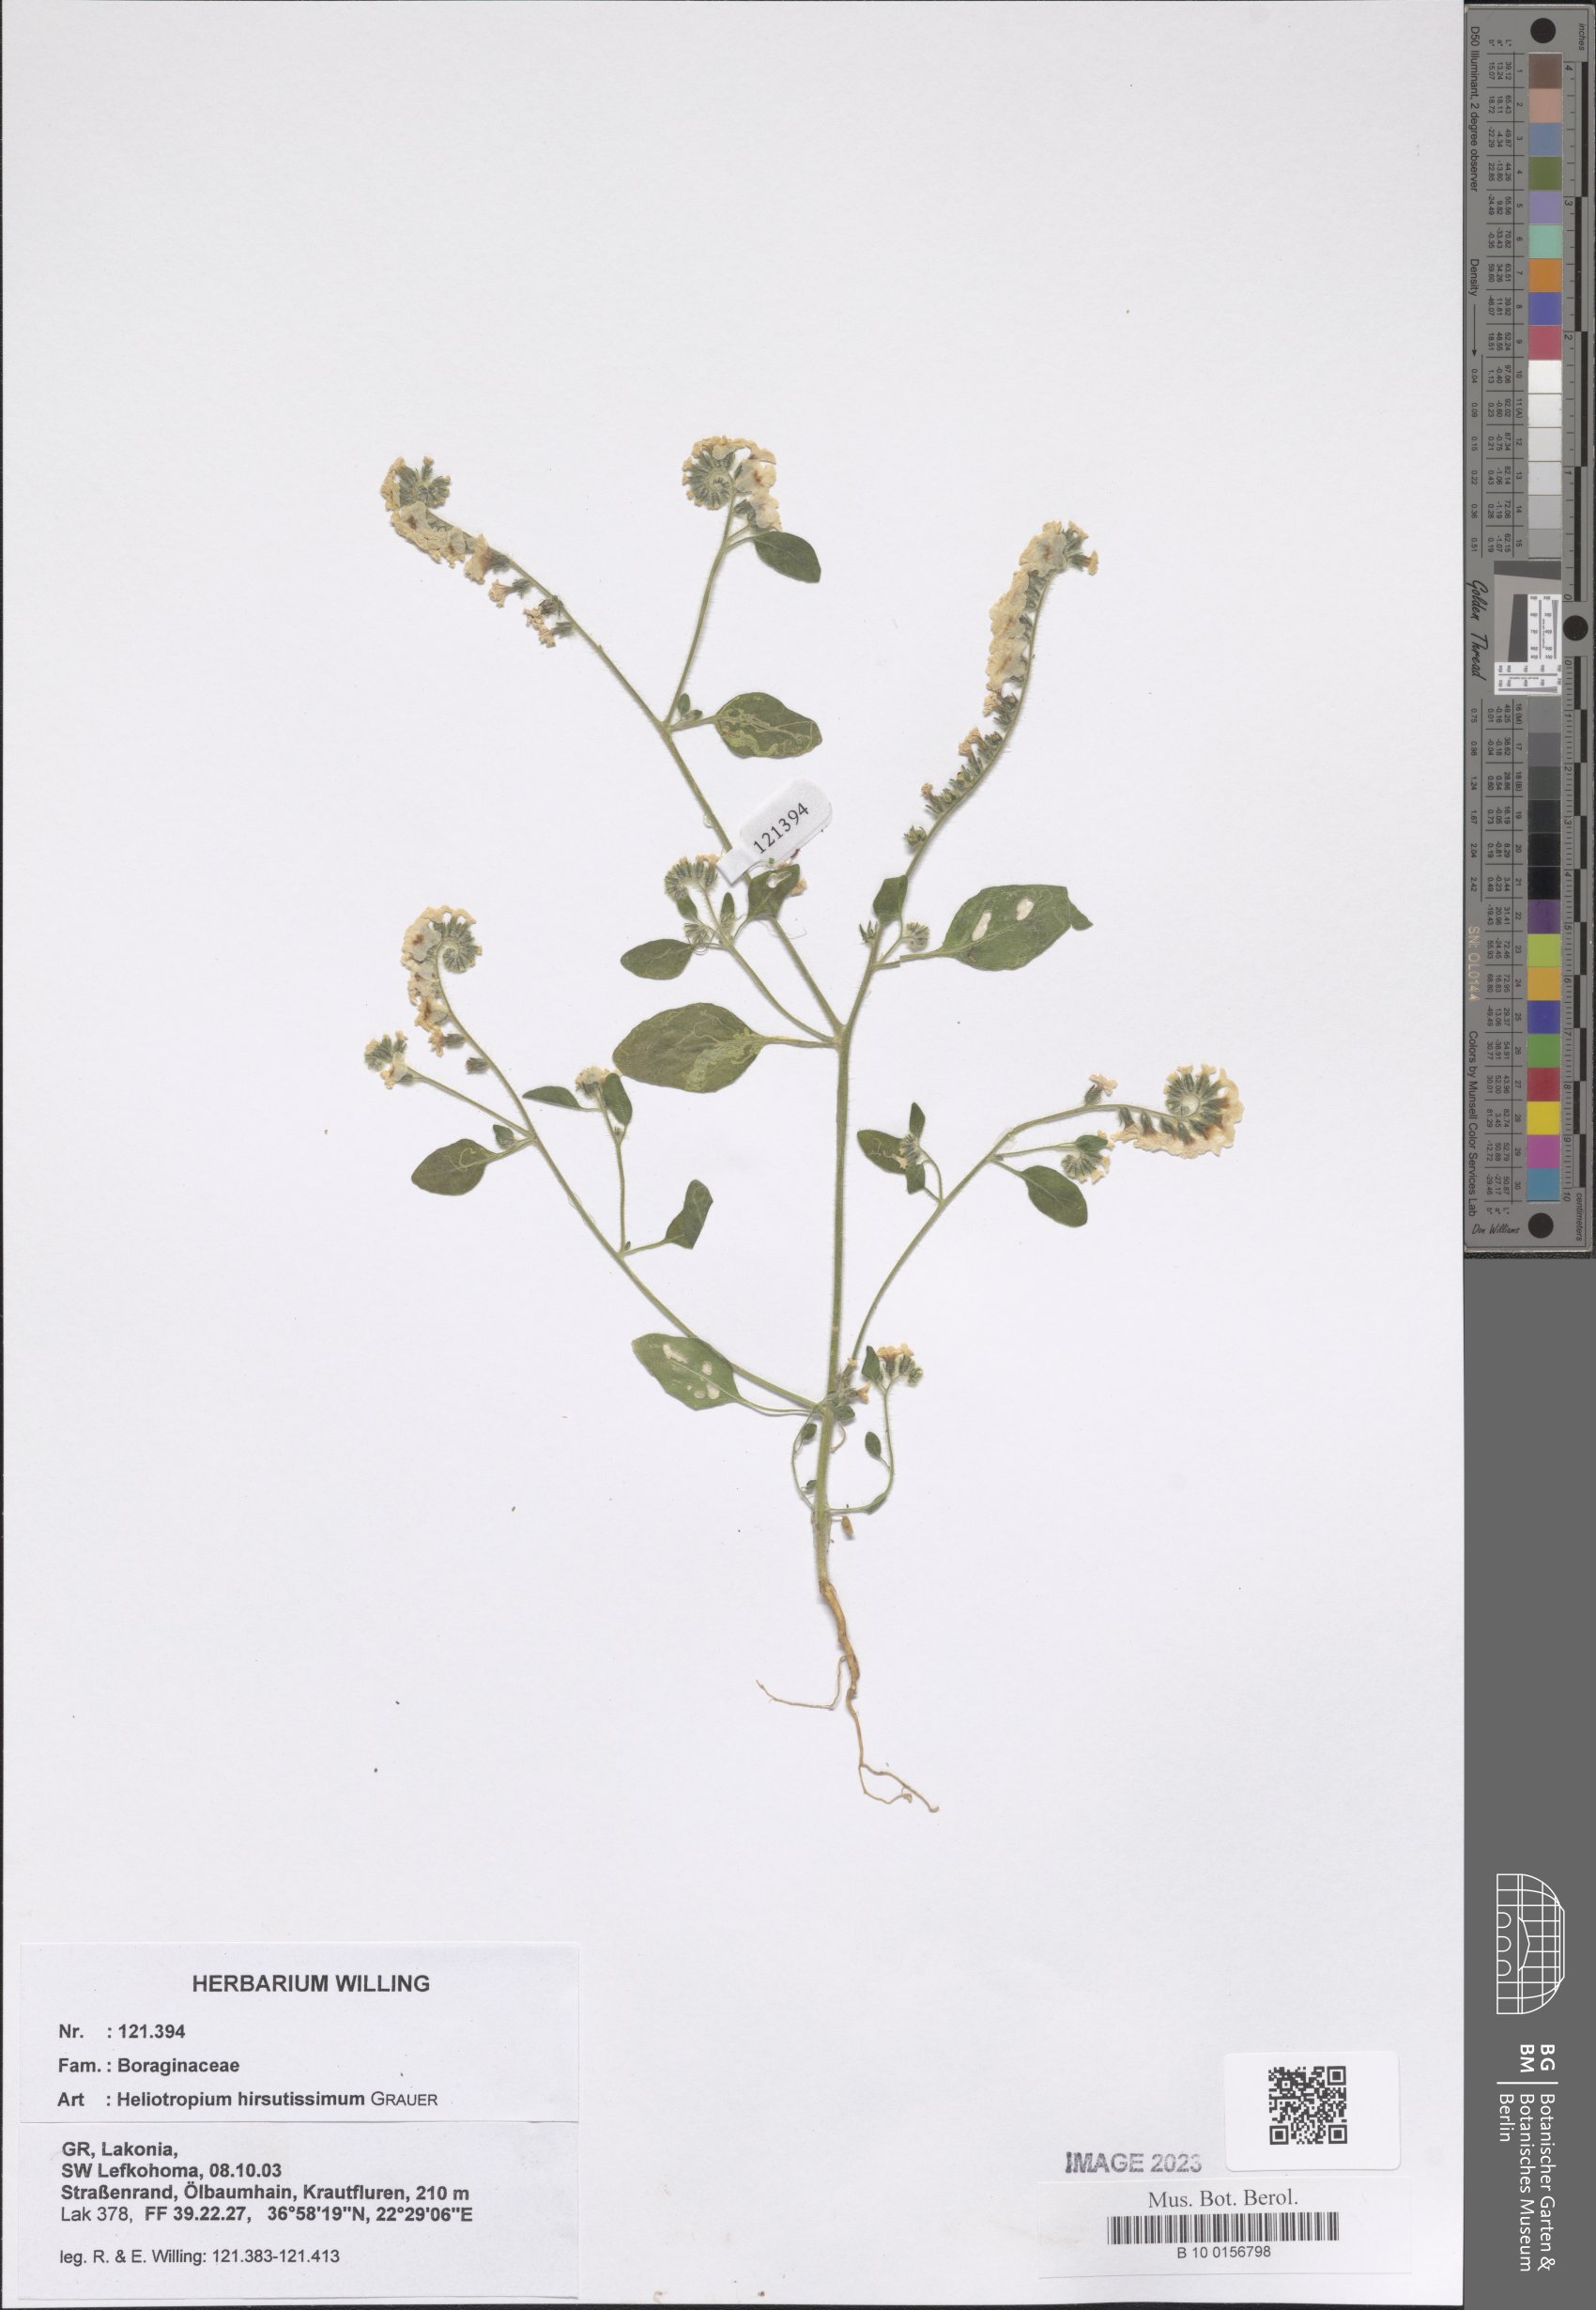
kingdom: Plantae
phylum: Tracheophyta
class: Magnoliopsida
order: Boraginales
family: Heliotropiaceae
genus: Heliotropium
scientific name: Heliotropium hirsutissimum
